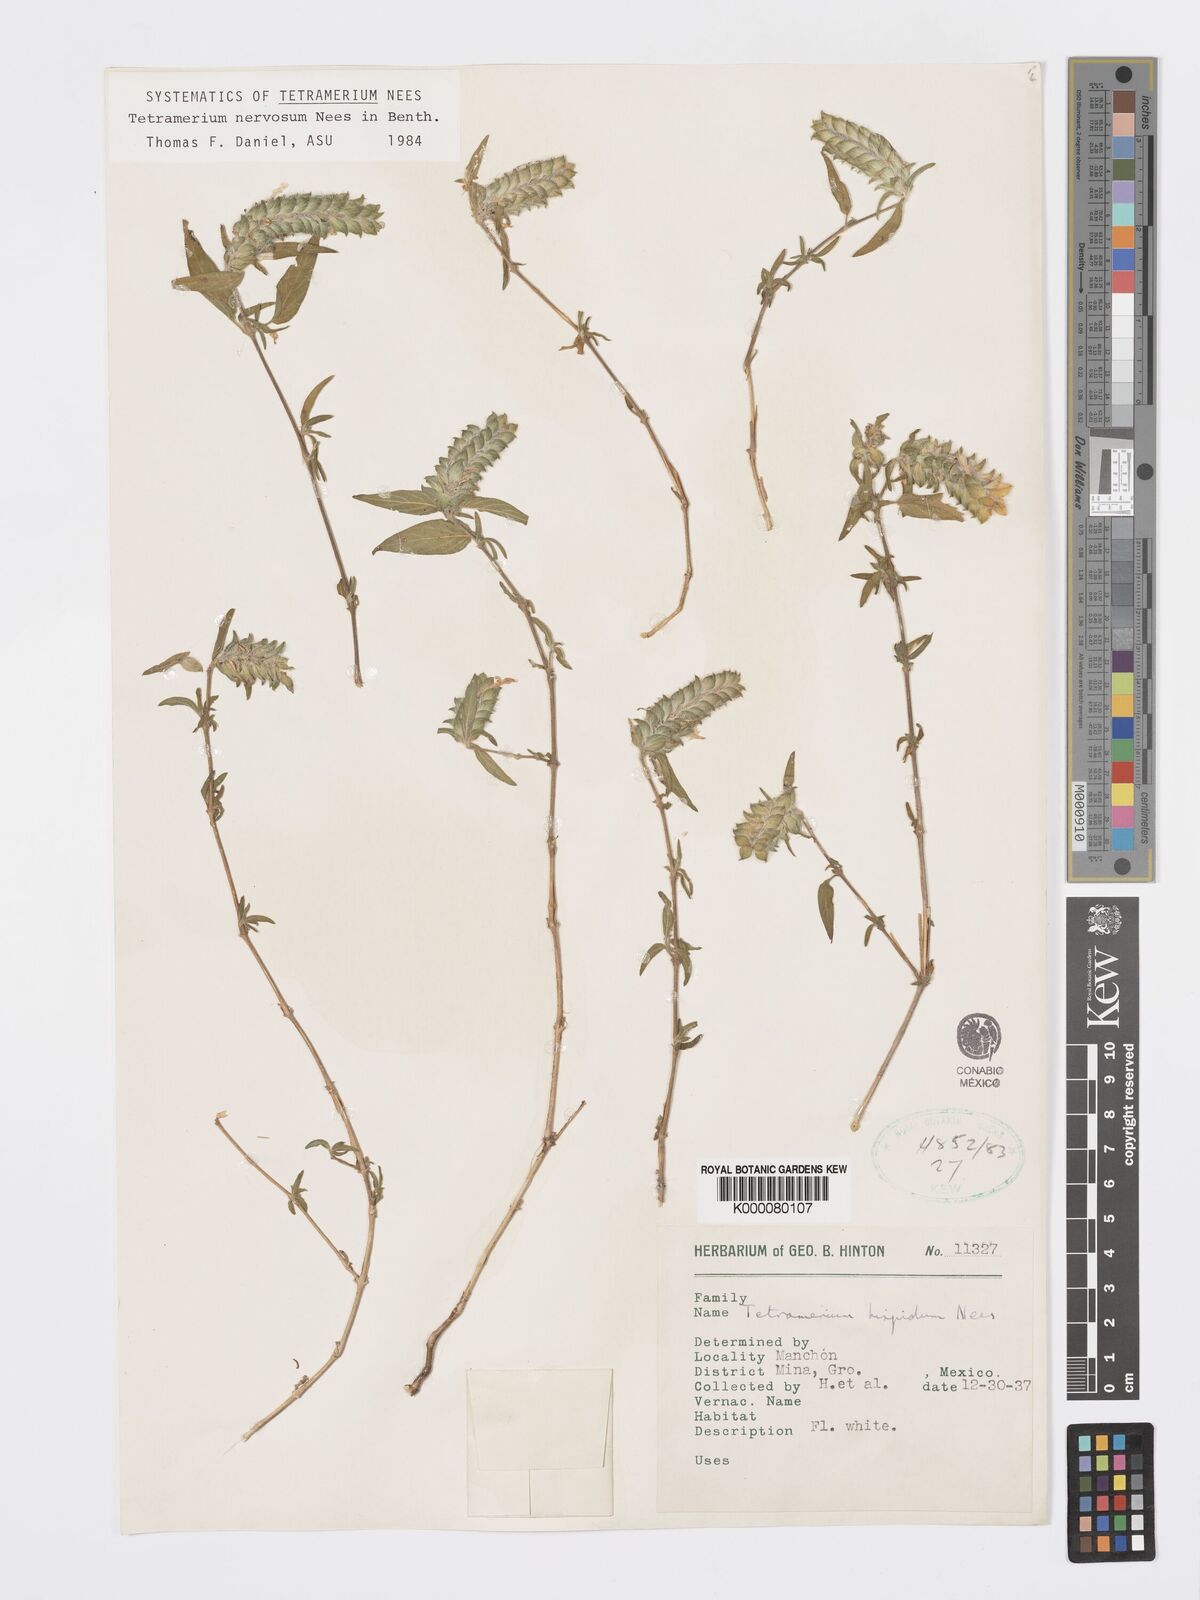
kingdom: Plantae
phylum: Tracheophyta
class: Magnoliopsida
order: Lamiales
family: Acanthaceae
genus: Tetramerium
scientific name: Tetramerium nervosum
